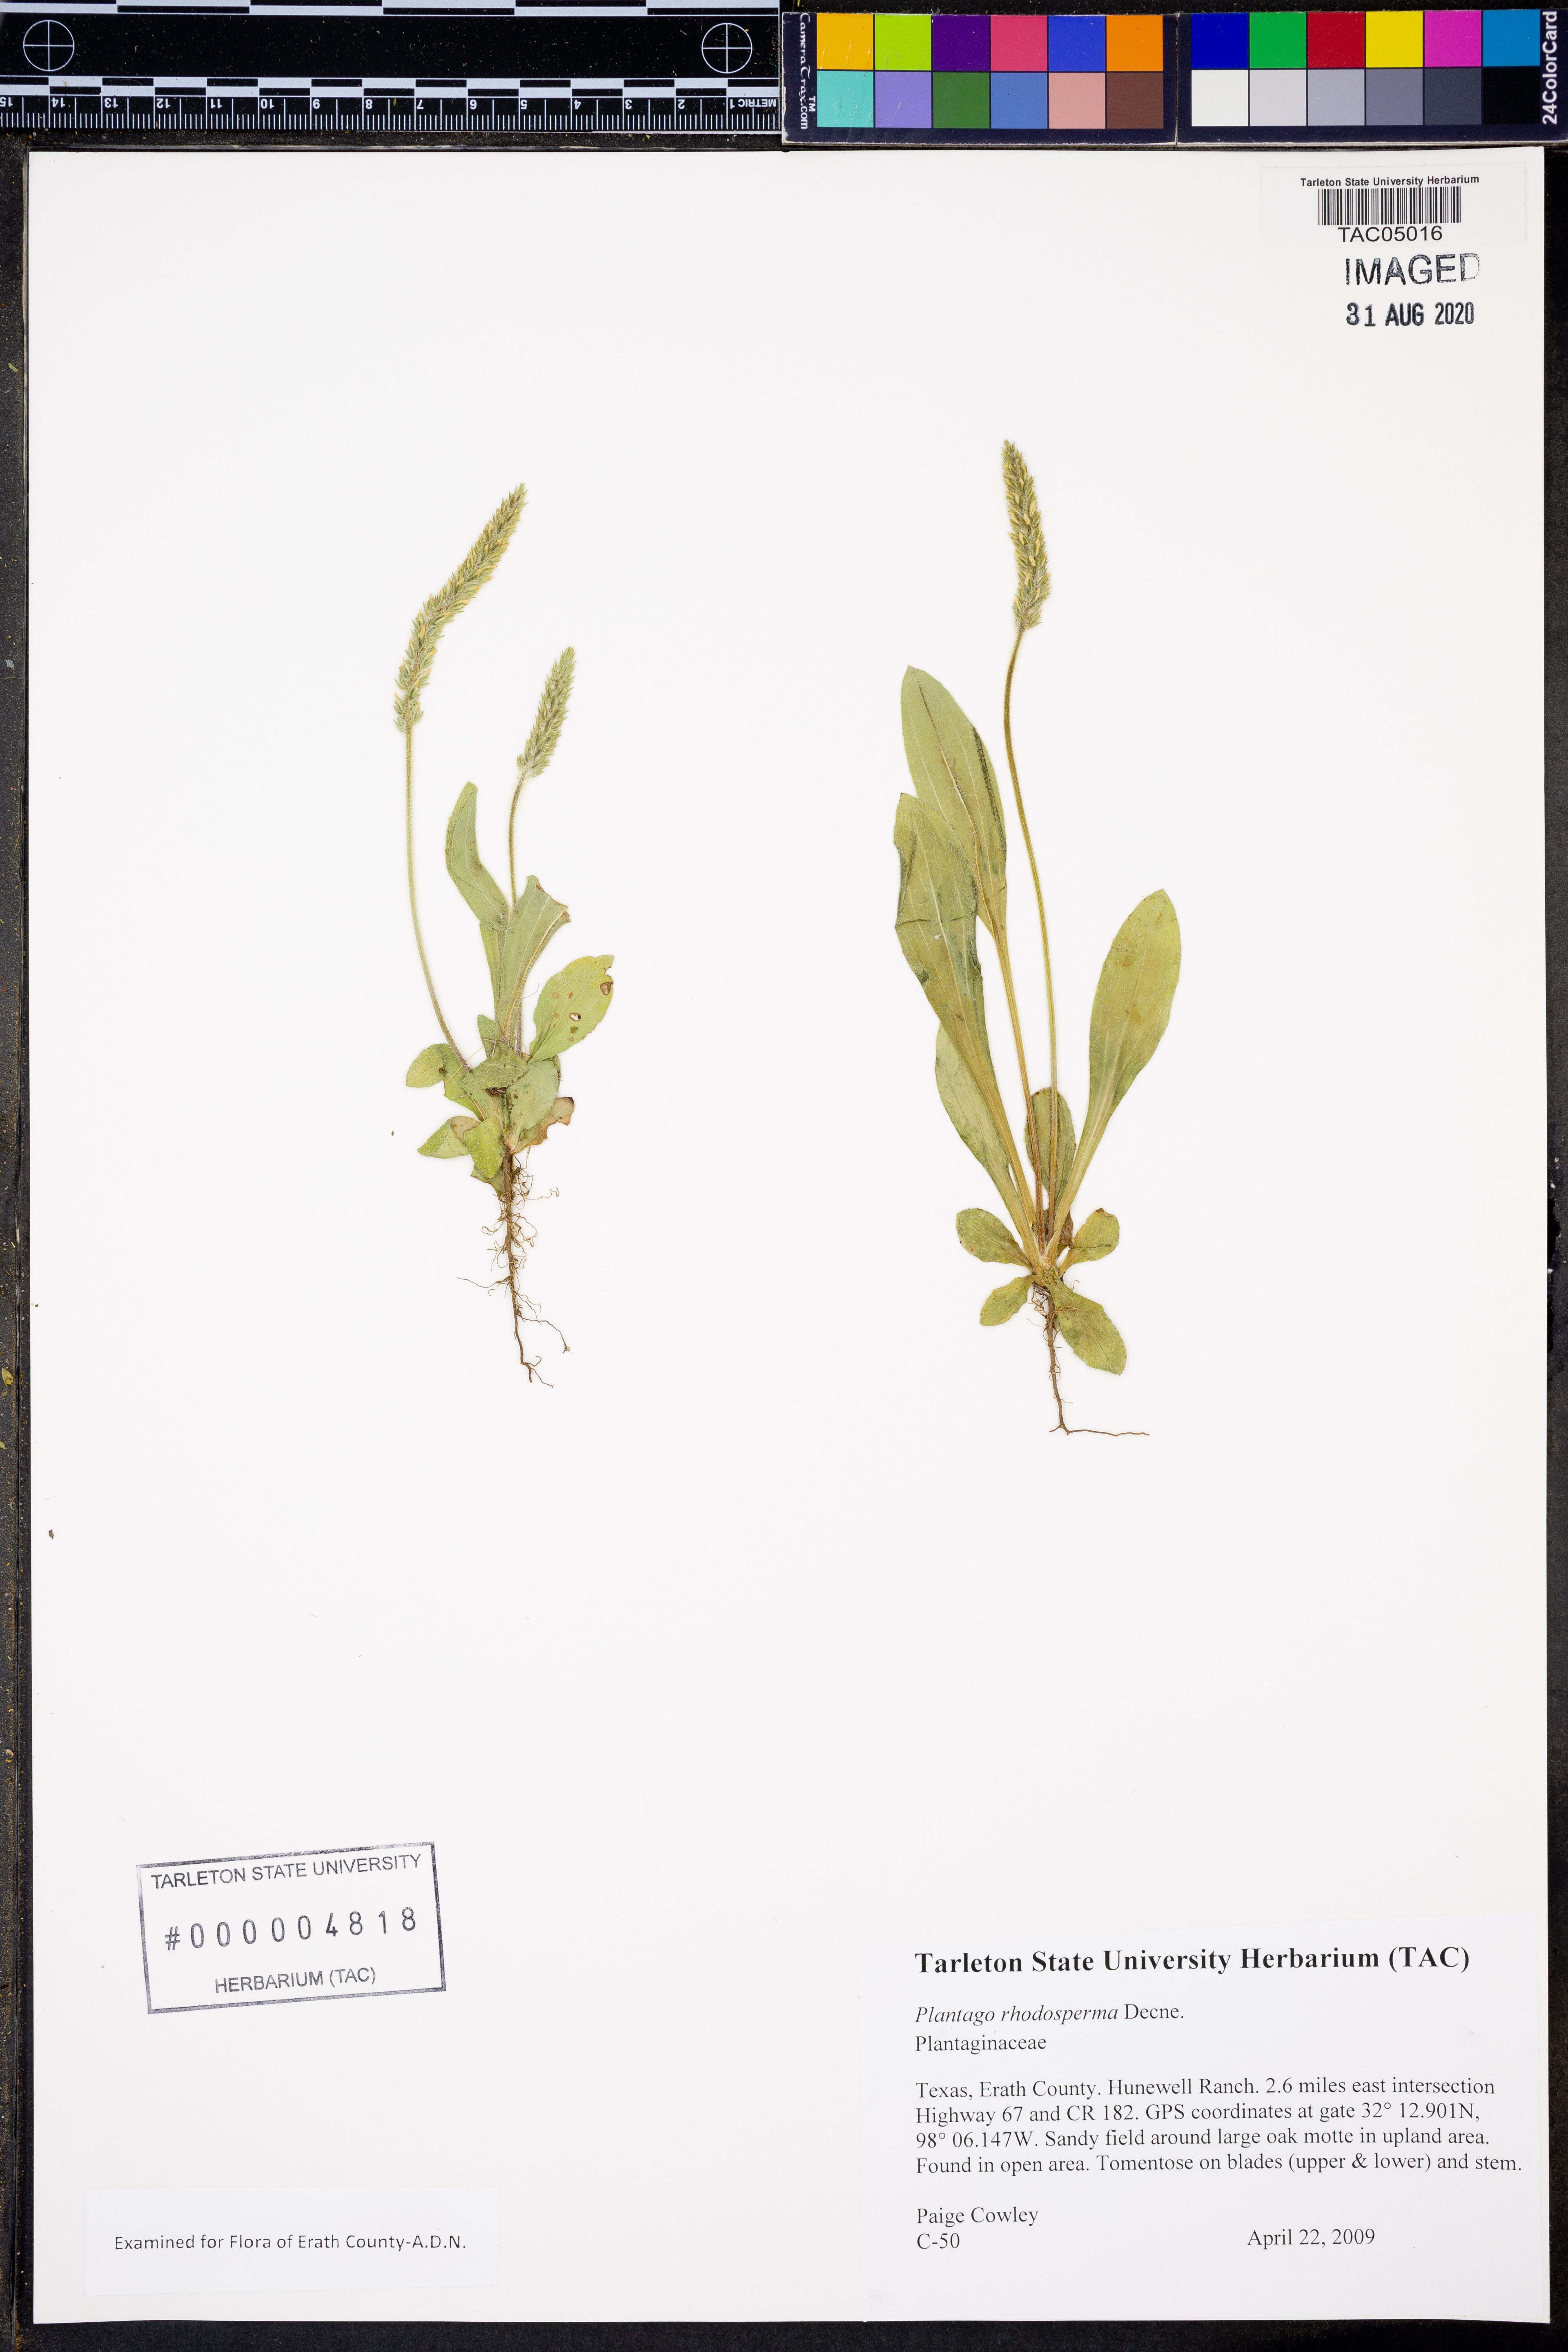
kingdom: Plantae
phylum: Tracheophyta
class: Magnoliopsida
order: Lamiales
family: Plantaginaceae
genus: Plantago
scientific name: Plantago rhodosperma
